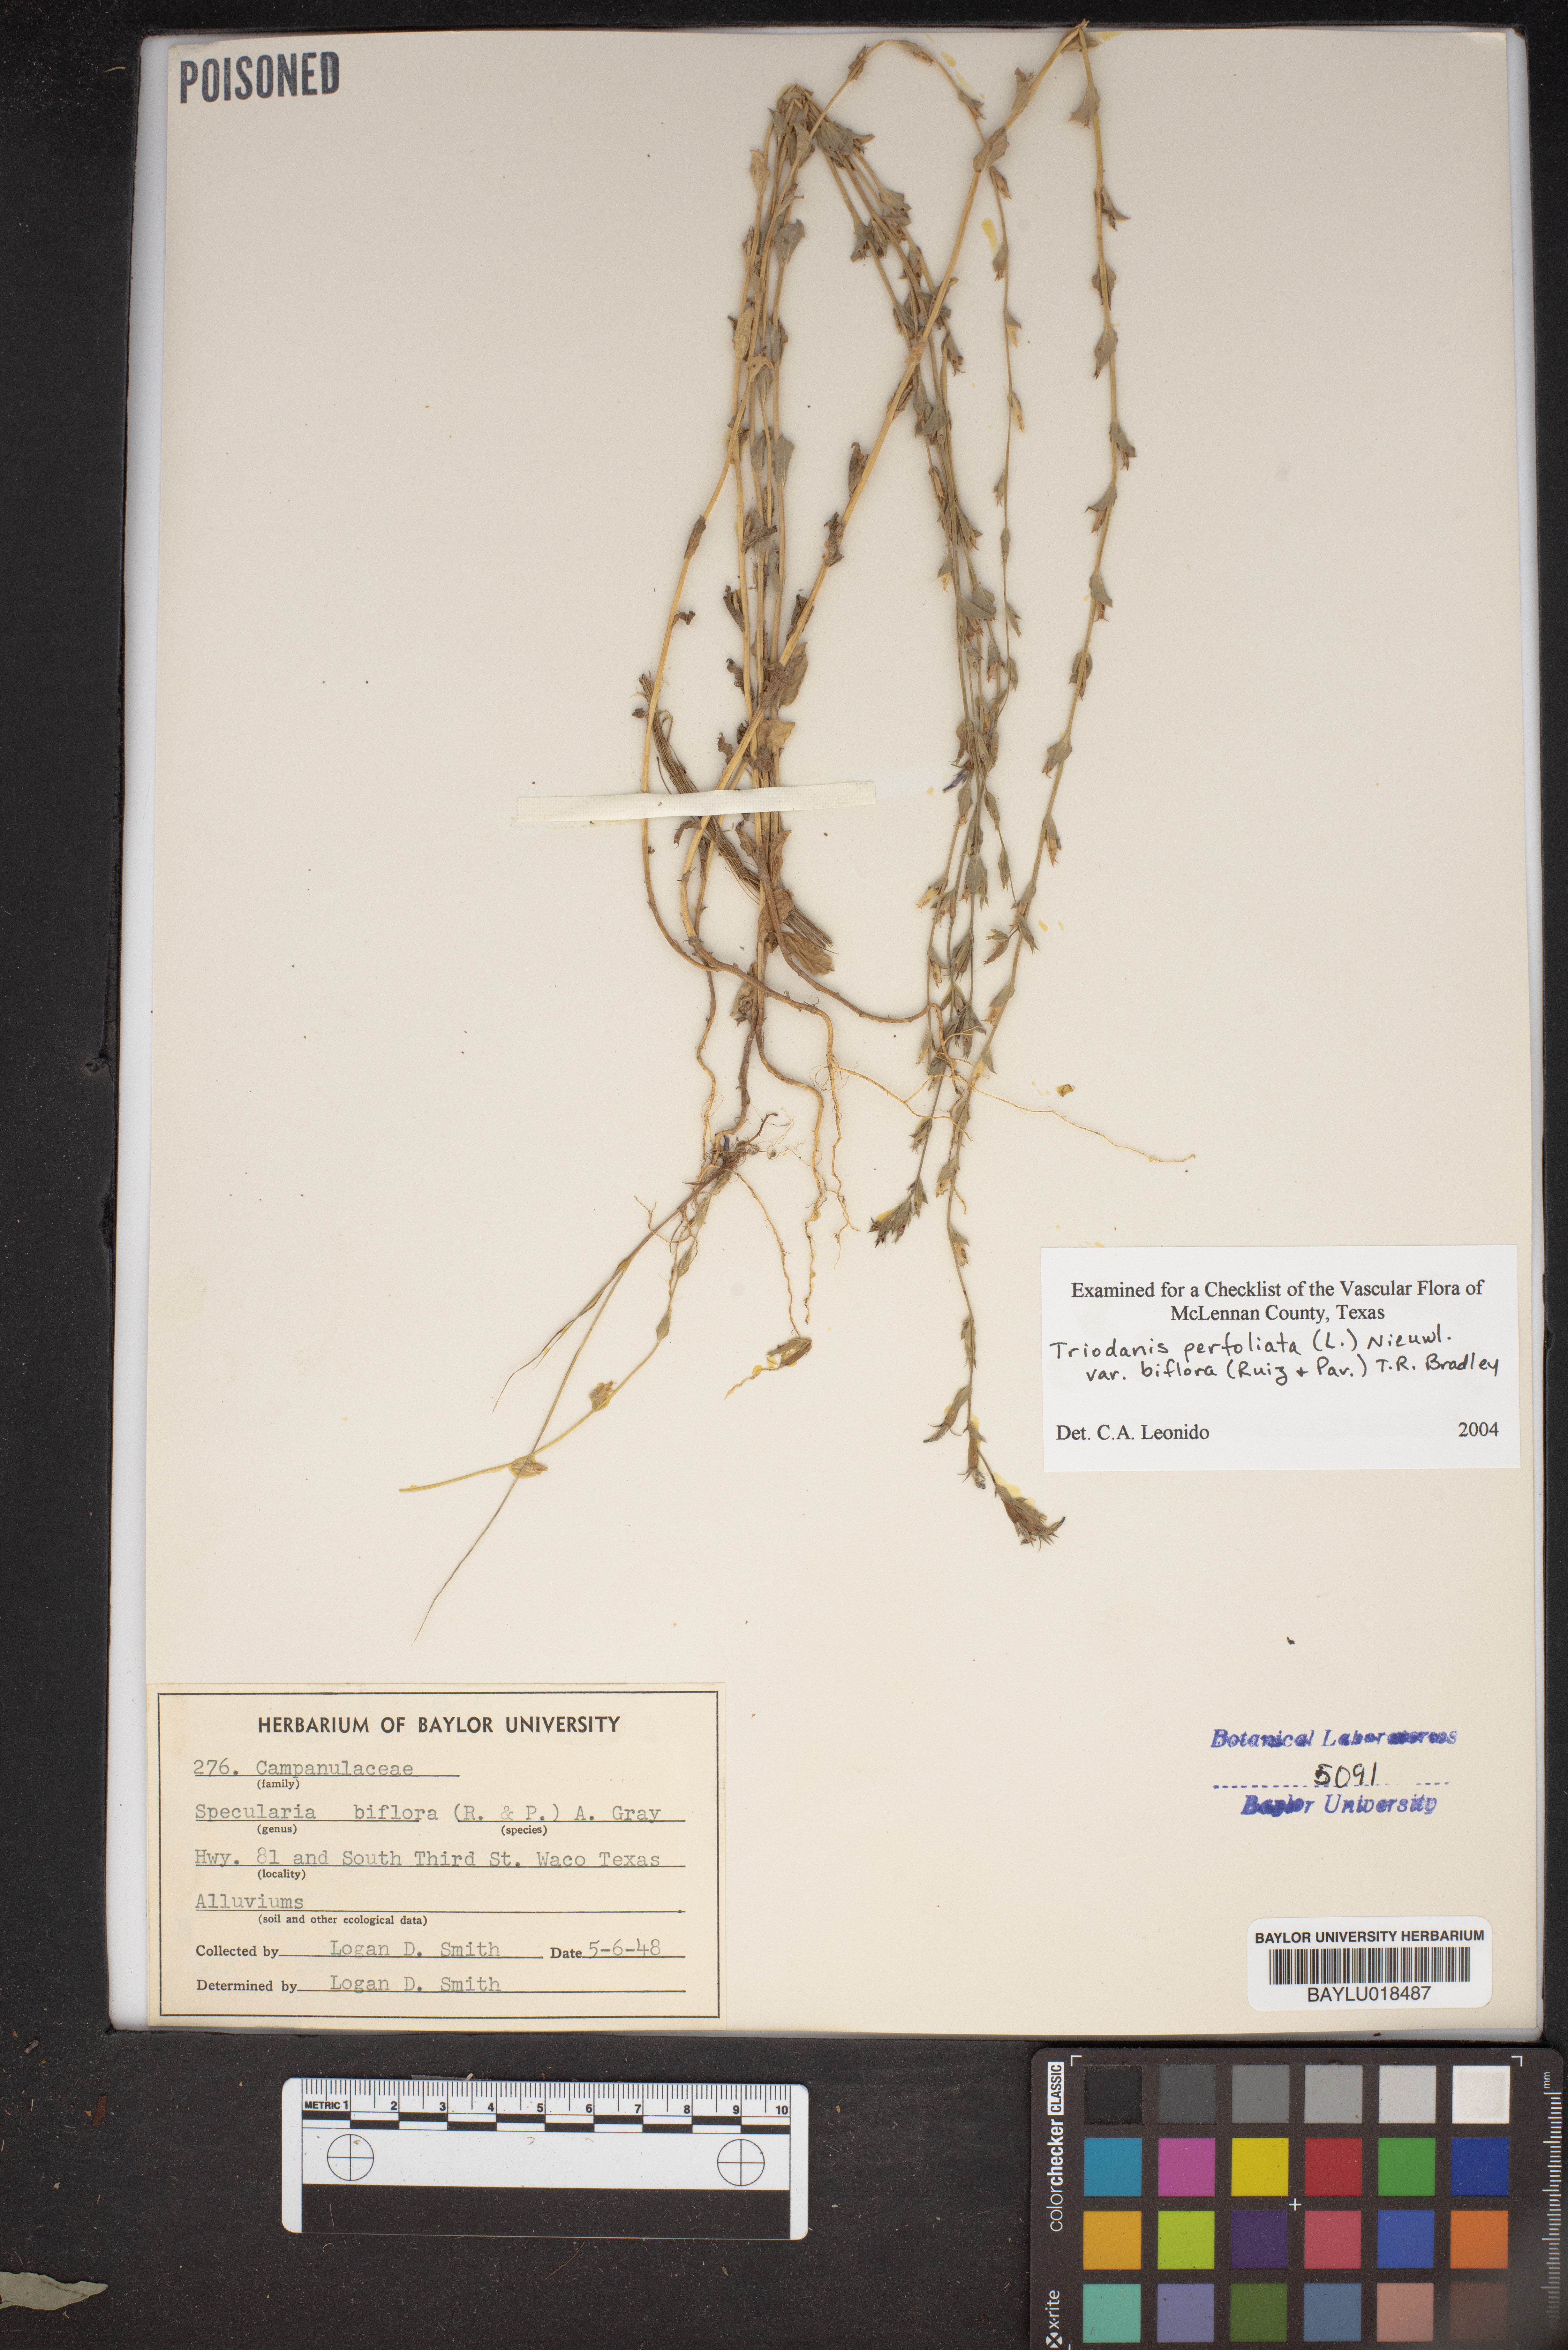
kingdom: Plantae
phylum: Tracheophyta
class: Magnoliopsida
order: Asterales
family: Campanulaceae
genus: Triodanis
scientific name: Triodanis perfoliata
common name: Clasping venus' looking-glass
